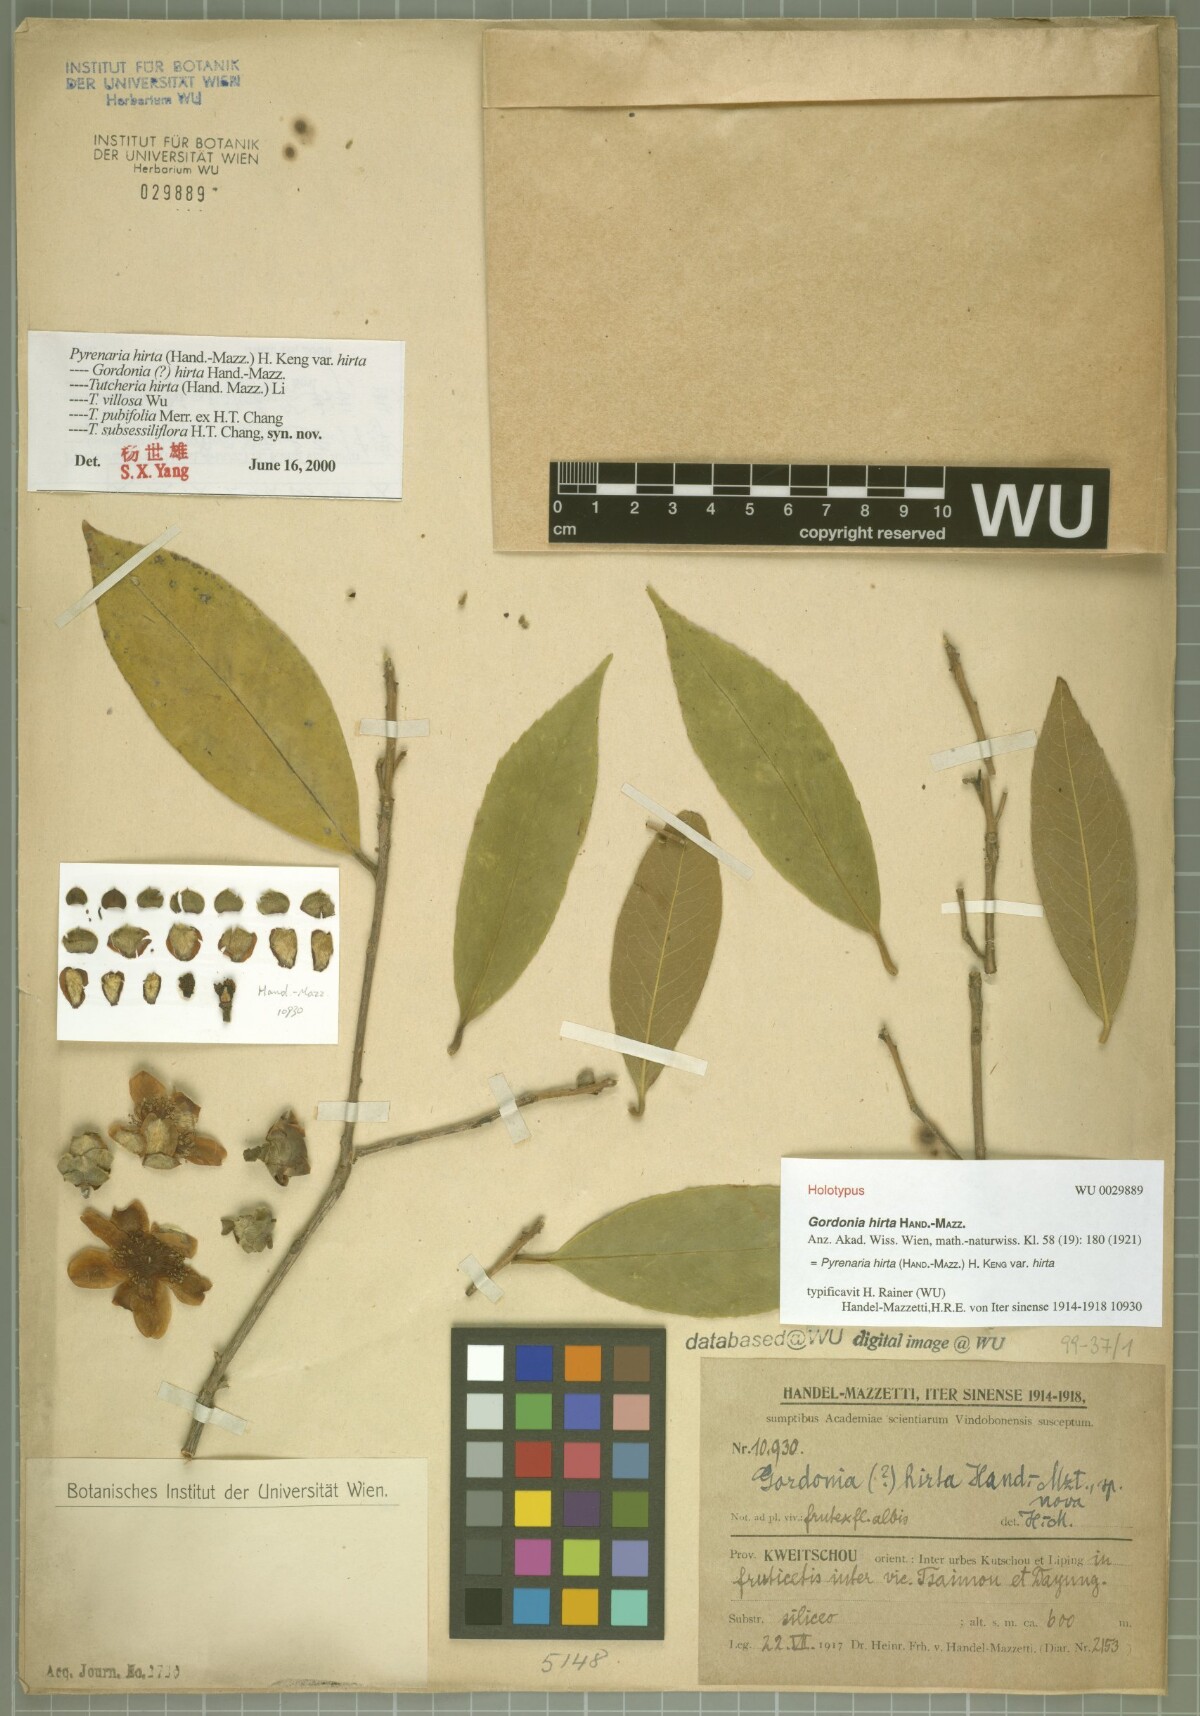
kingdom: Plantae
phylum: Tracheophyta
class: Magnoliopsida
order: Ericales
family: Theaceae
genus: Pyrenaria
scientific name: Pyrenaria hirta
